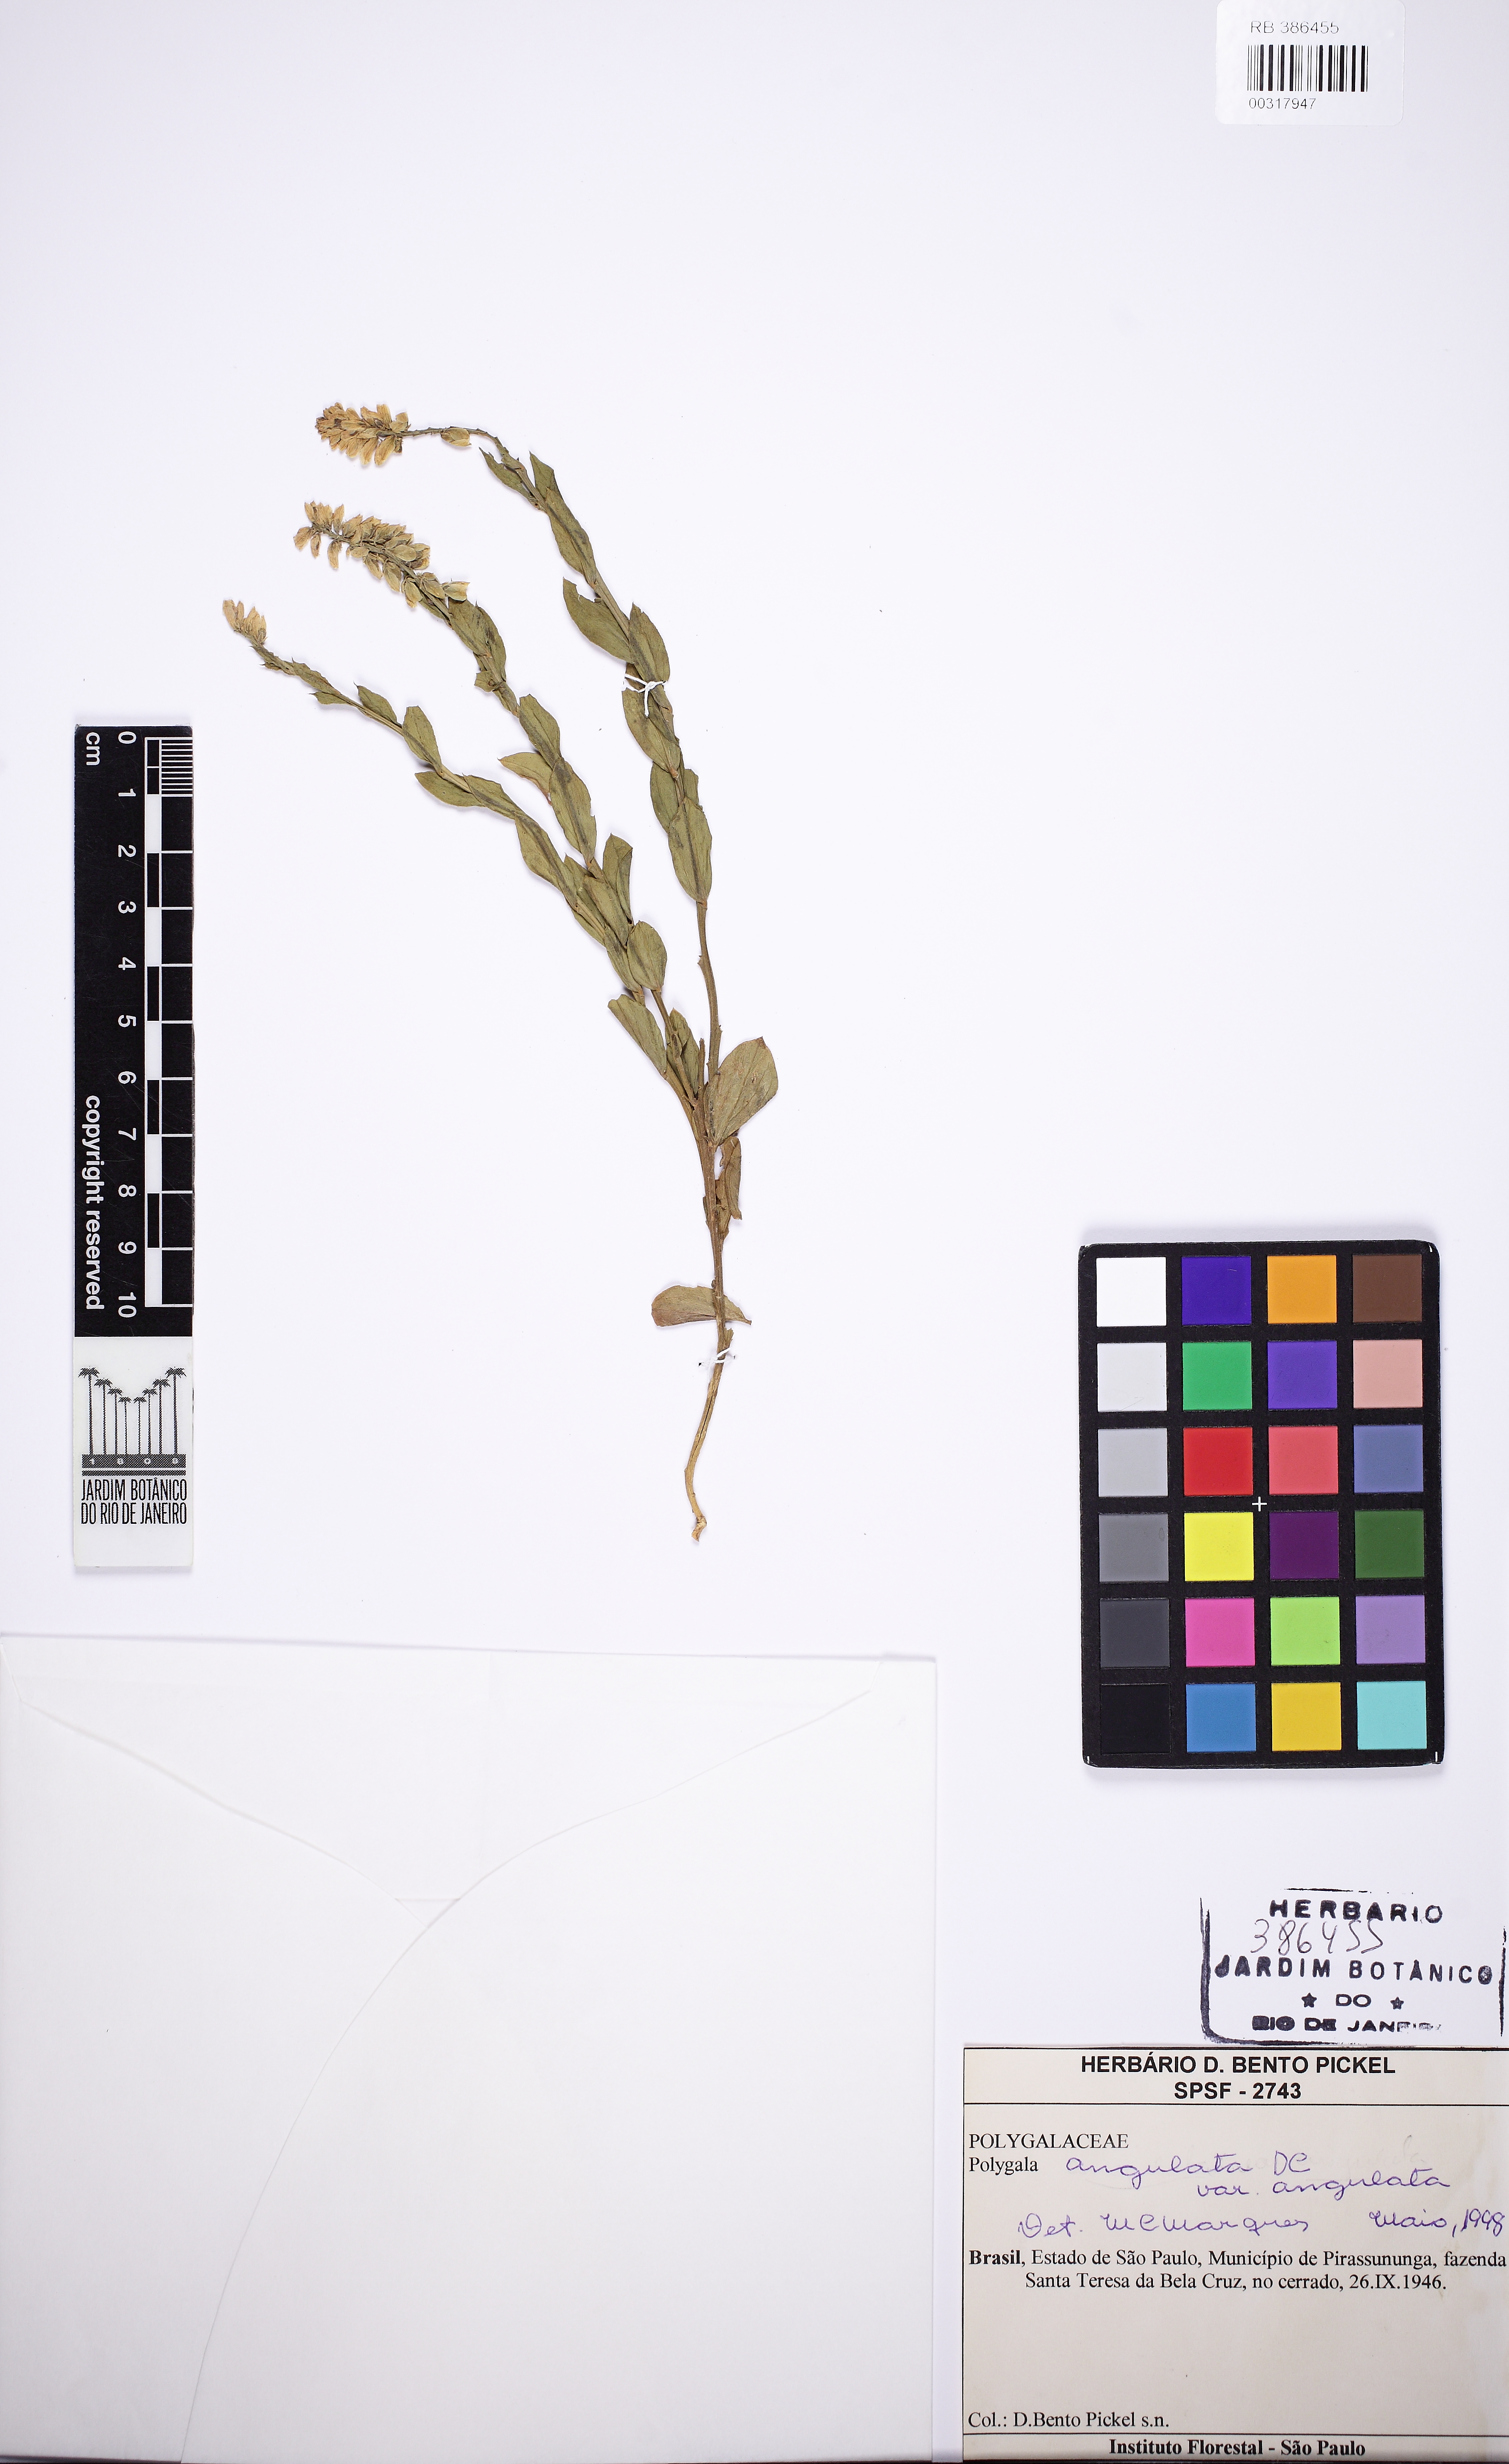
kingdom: Plantae
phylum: Tracheophyta
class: Magnoliopsida
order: Fabales
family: Polygalaceae
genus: Polygala
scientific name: Polygala poaya
